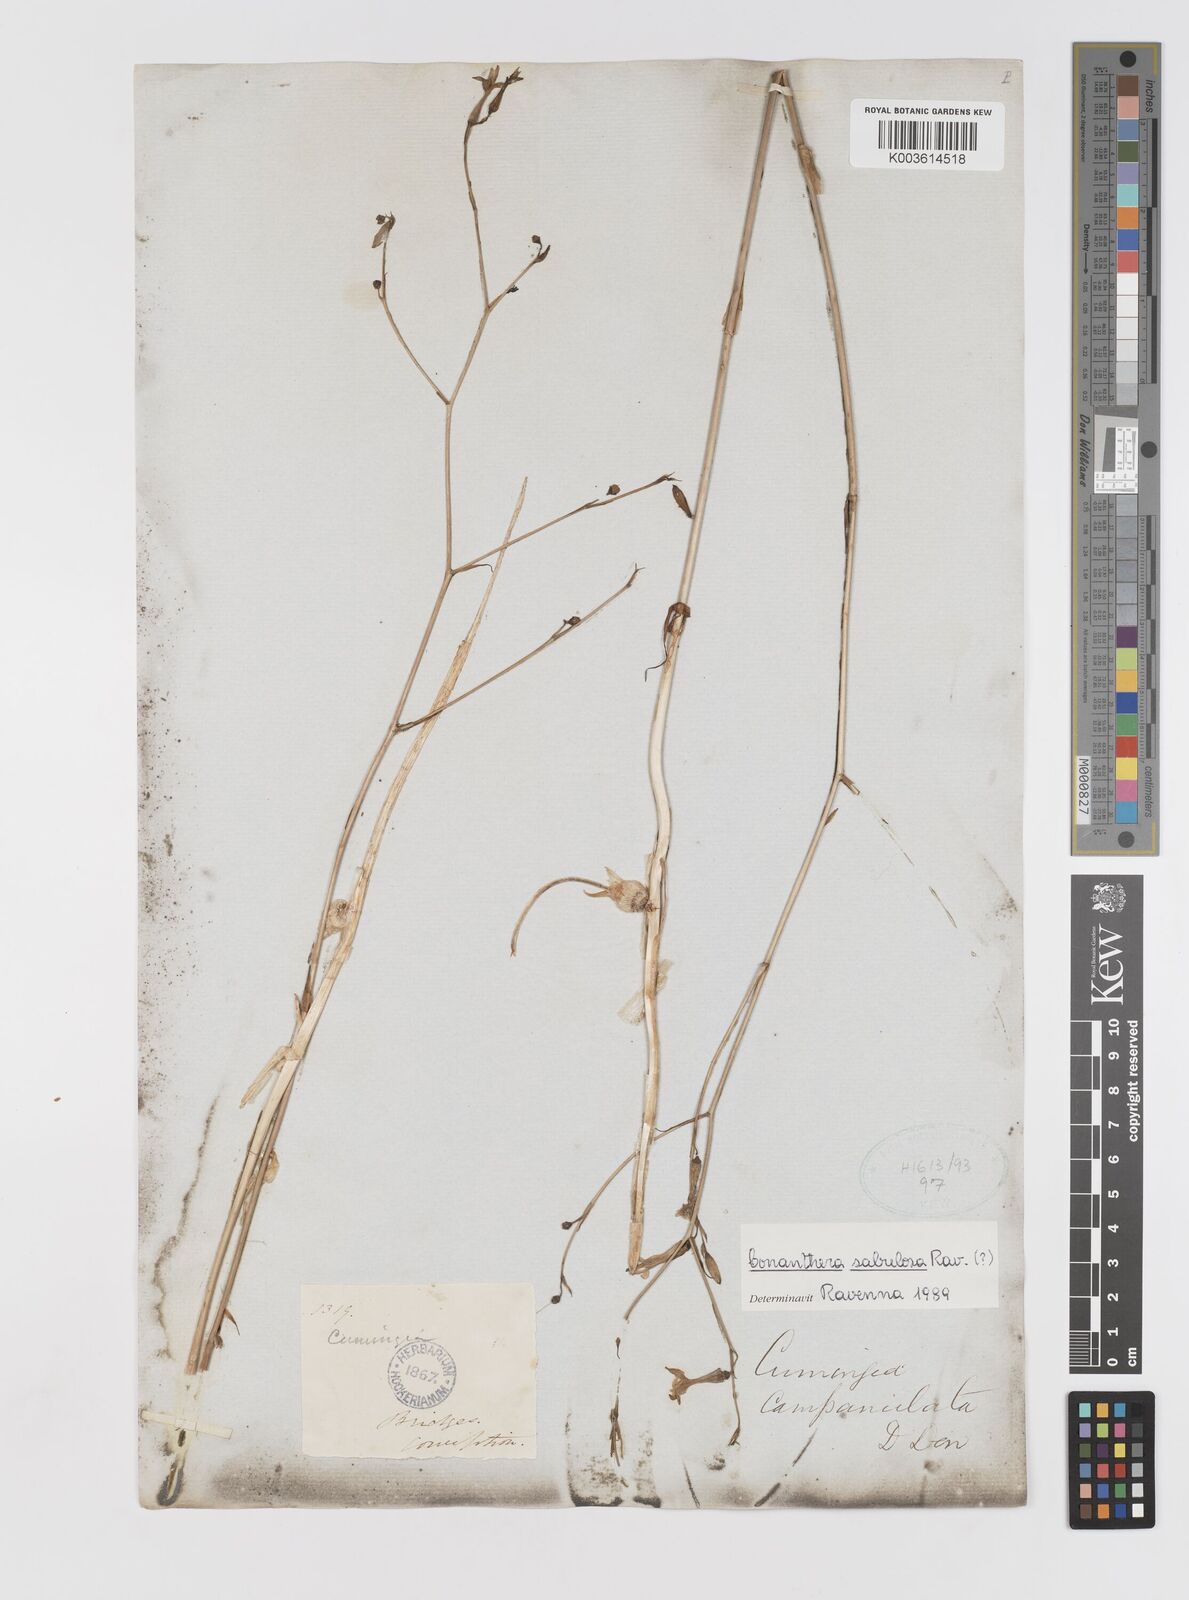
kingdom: Plantae
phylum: Tracheophyta
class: Liliopsida
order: Asparagales
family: Tecophilaeaceae
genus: Conanthera
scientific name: Conanthera campanulata
